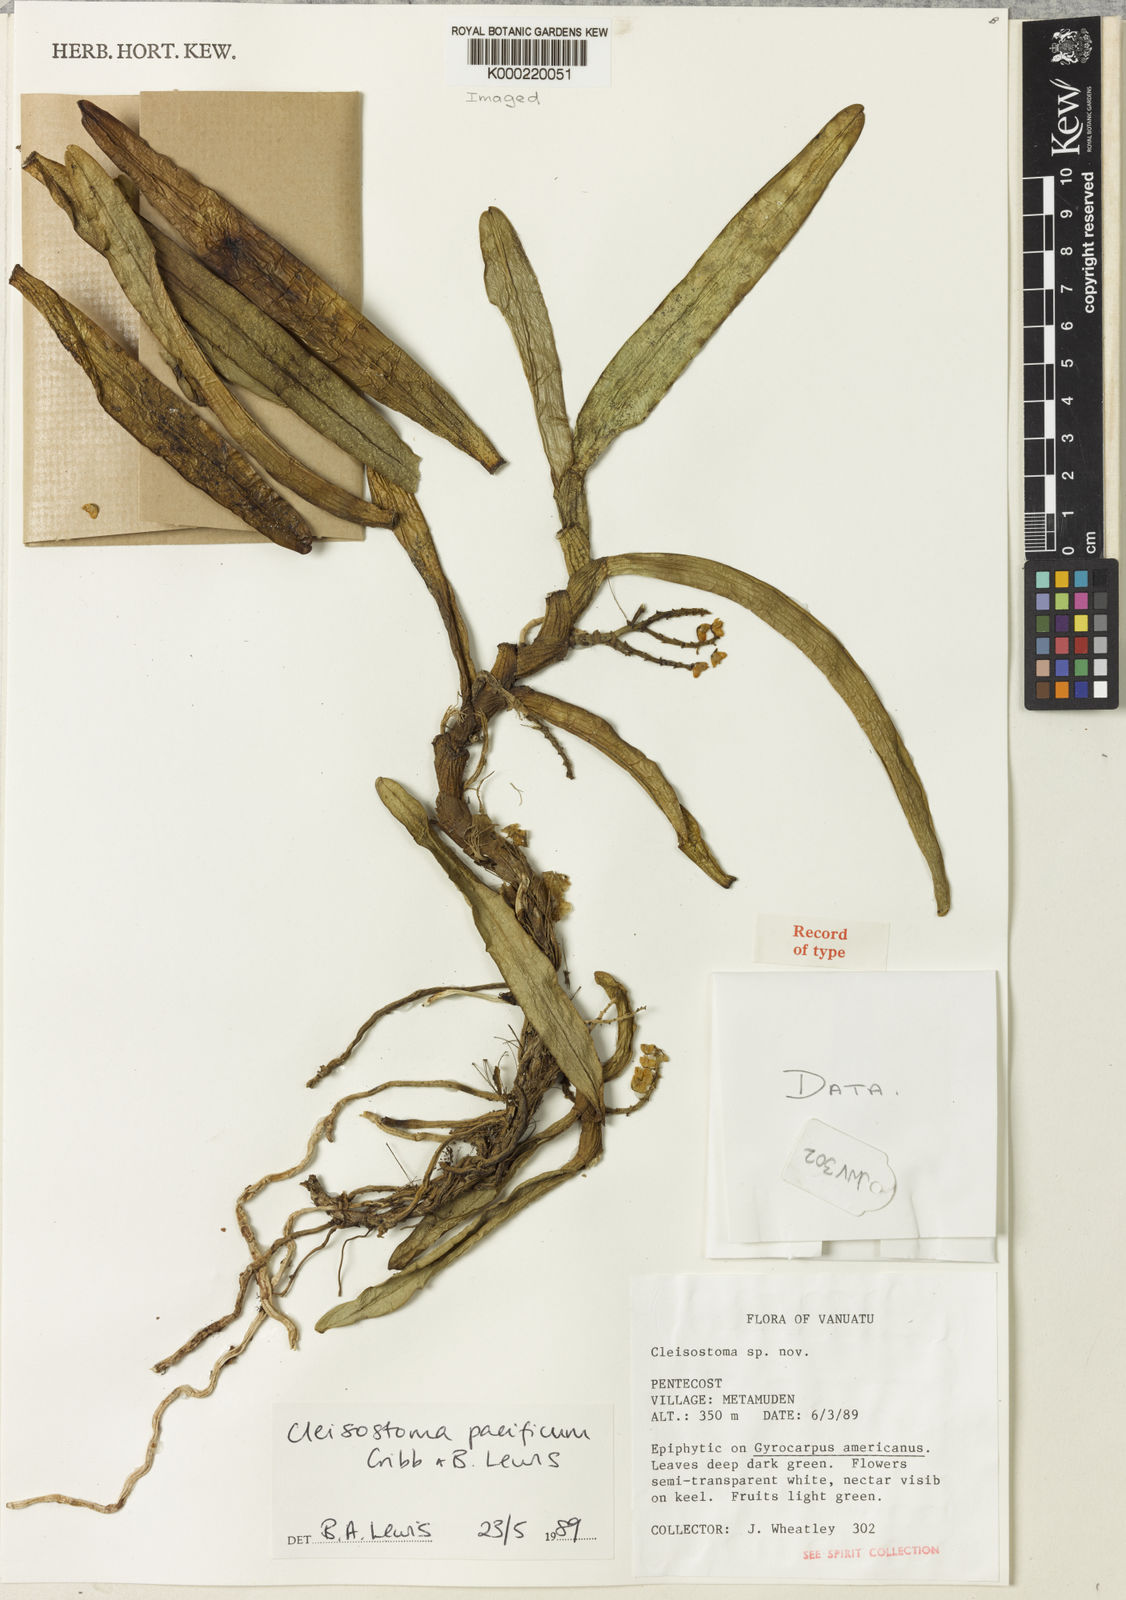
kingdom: Plantae
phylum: Tracheophyta
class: Liliopsida
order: Asparagales
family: Orchidaceae
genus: Cleisostoma
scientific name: Cleisostoma pacificum
